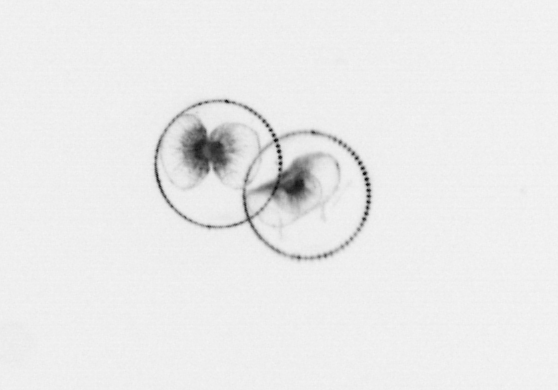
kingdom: Chromista
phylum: Myzozoa
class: Dinophyceae
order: Noctilucales
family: Noctilucaceae
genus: Noctiluca
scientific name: Noctiluca scintillans
